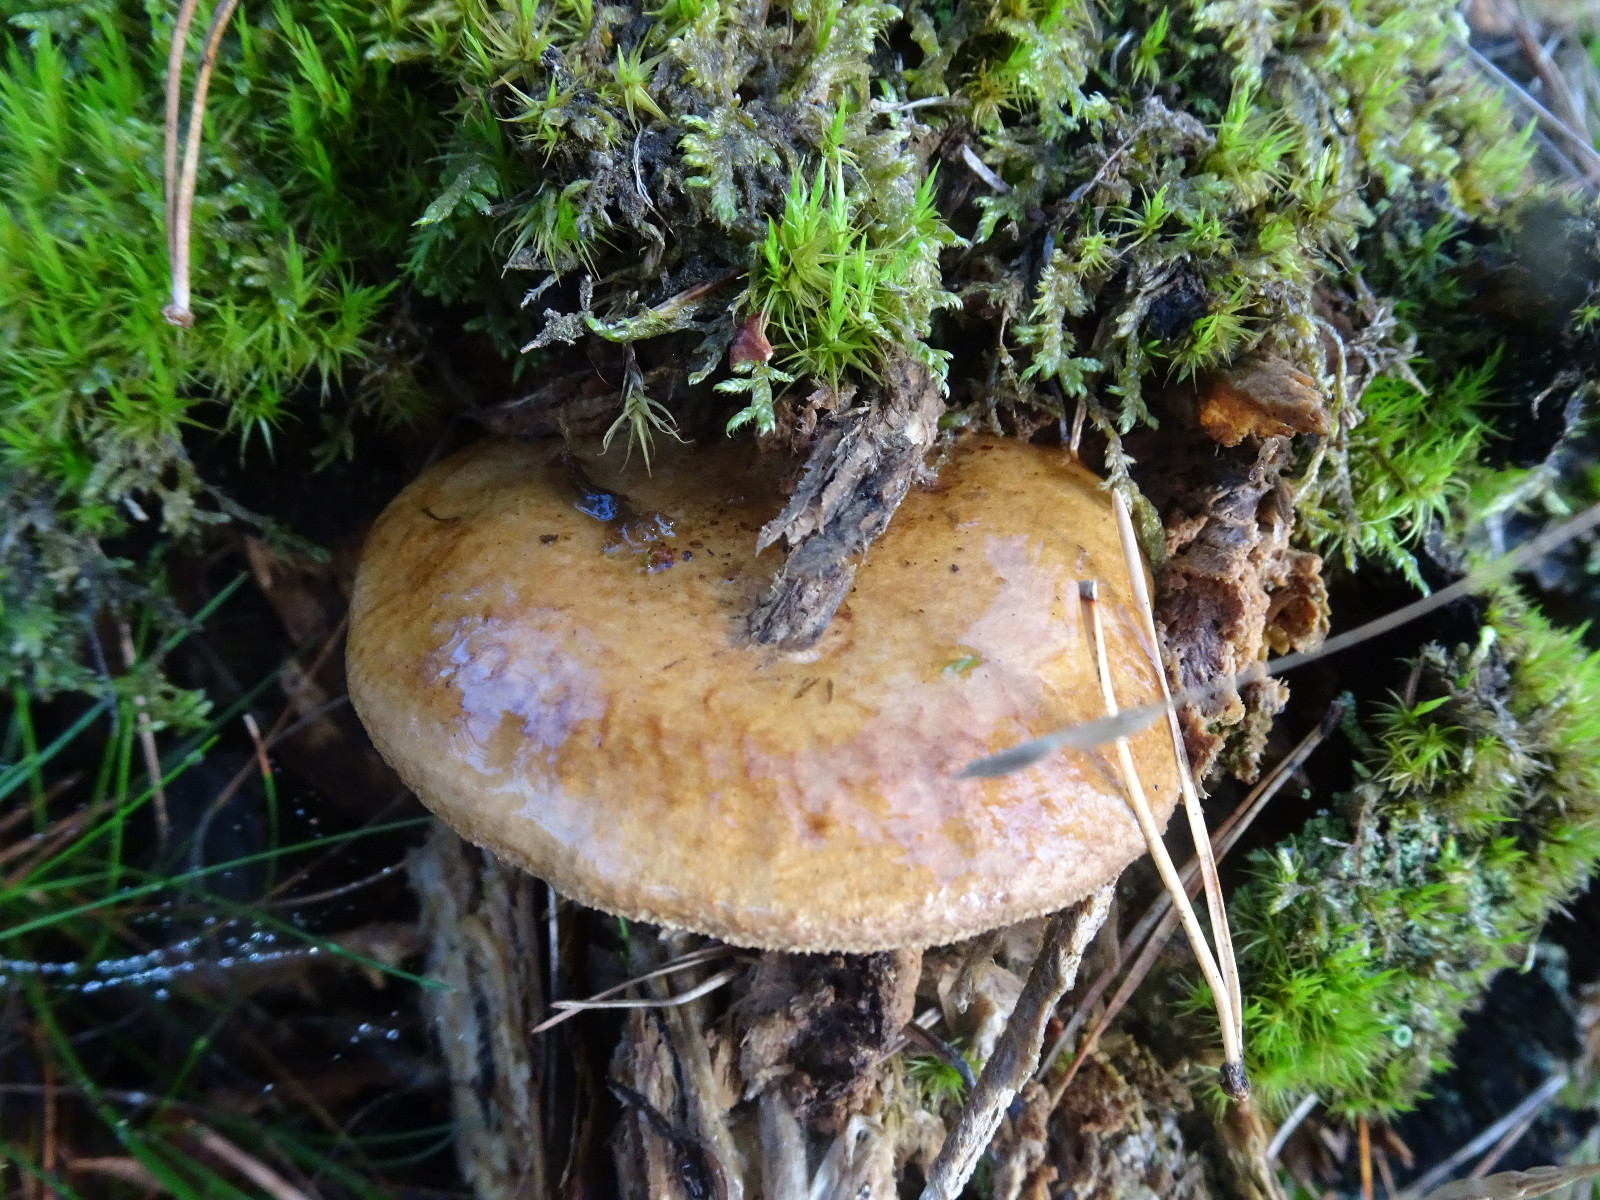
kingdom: Fungi
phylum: Basidiomycota
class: Agaricomycetes
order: Boletales
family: Paxillaceae
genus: Paxillus
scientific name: Paxillus involutus
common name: almindelig netbladhat
